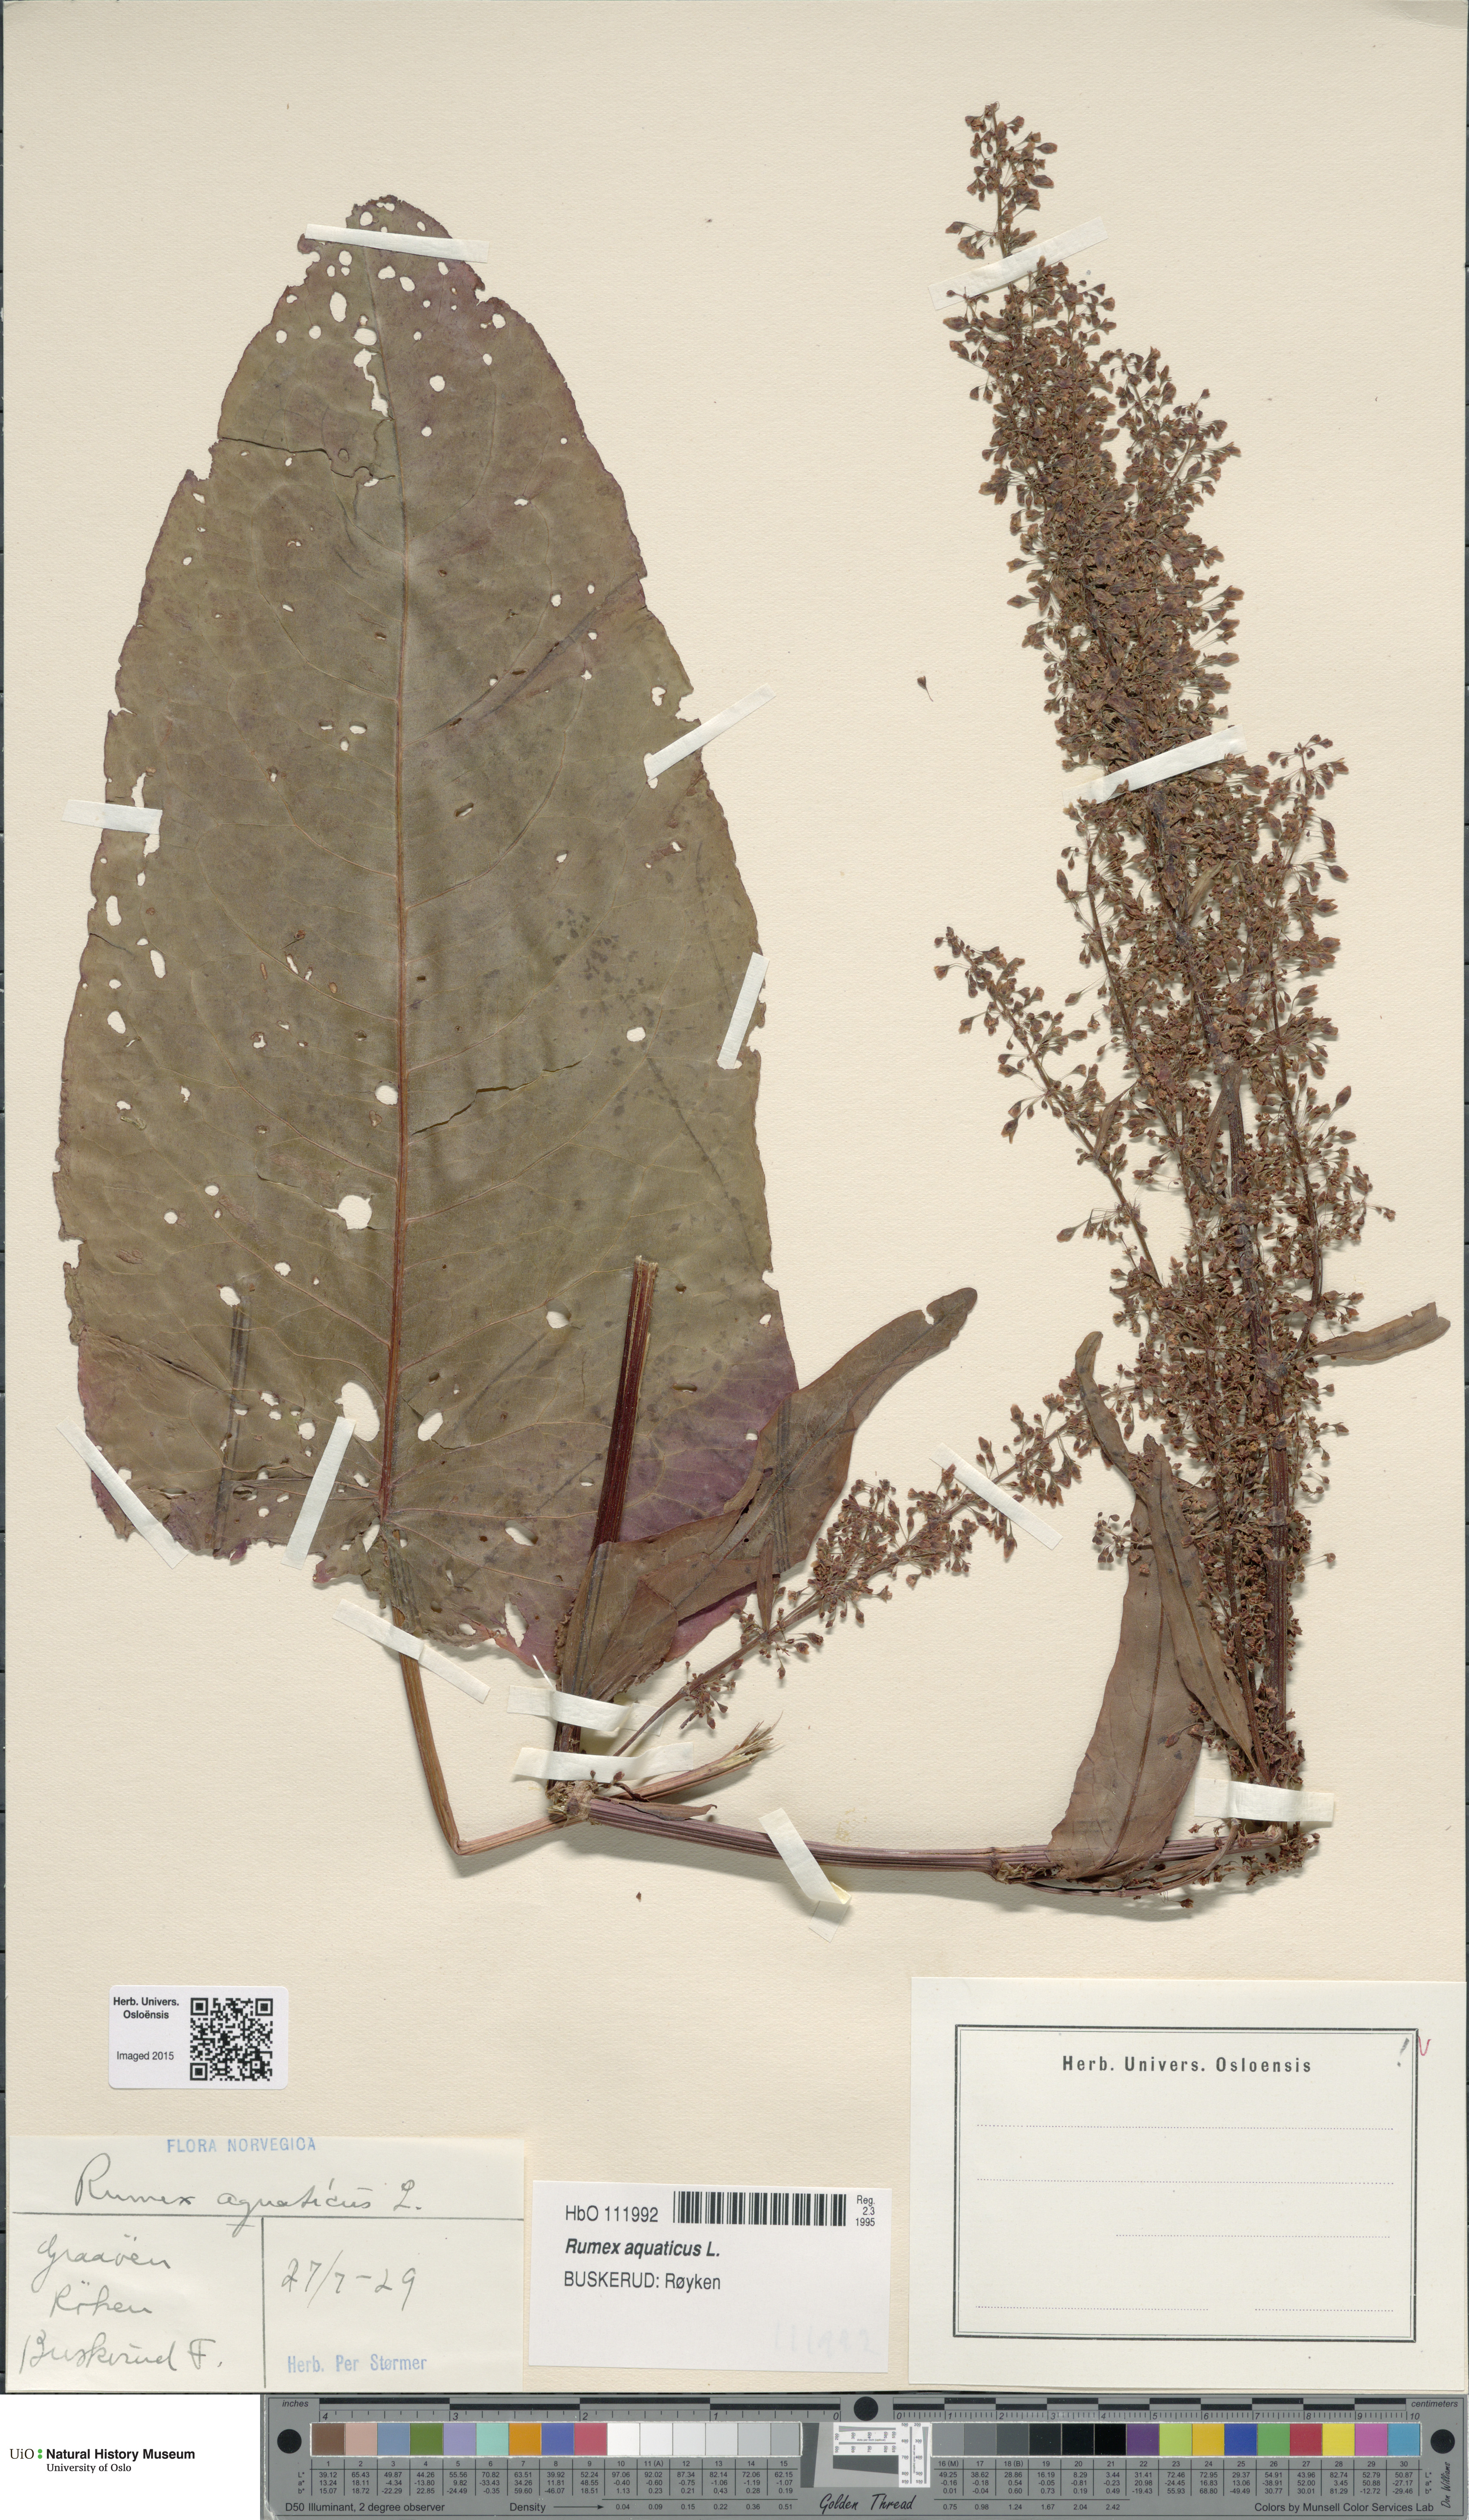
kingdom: Plantae
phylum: Tracheophyta
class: Magnoliopsida
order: Caryophyllales
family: Polygonaceae
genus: Rumex
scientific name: Rumex aquaticus
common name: Scottish dock
